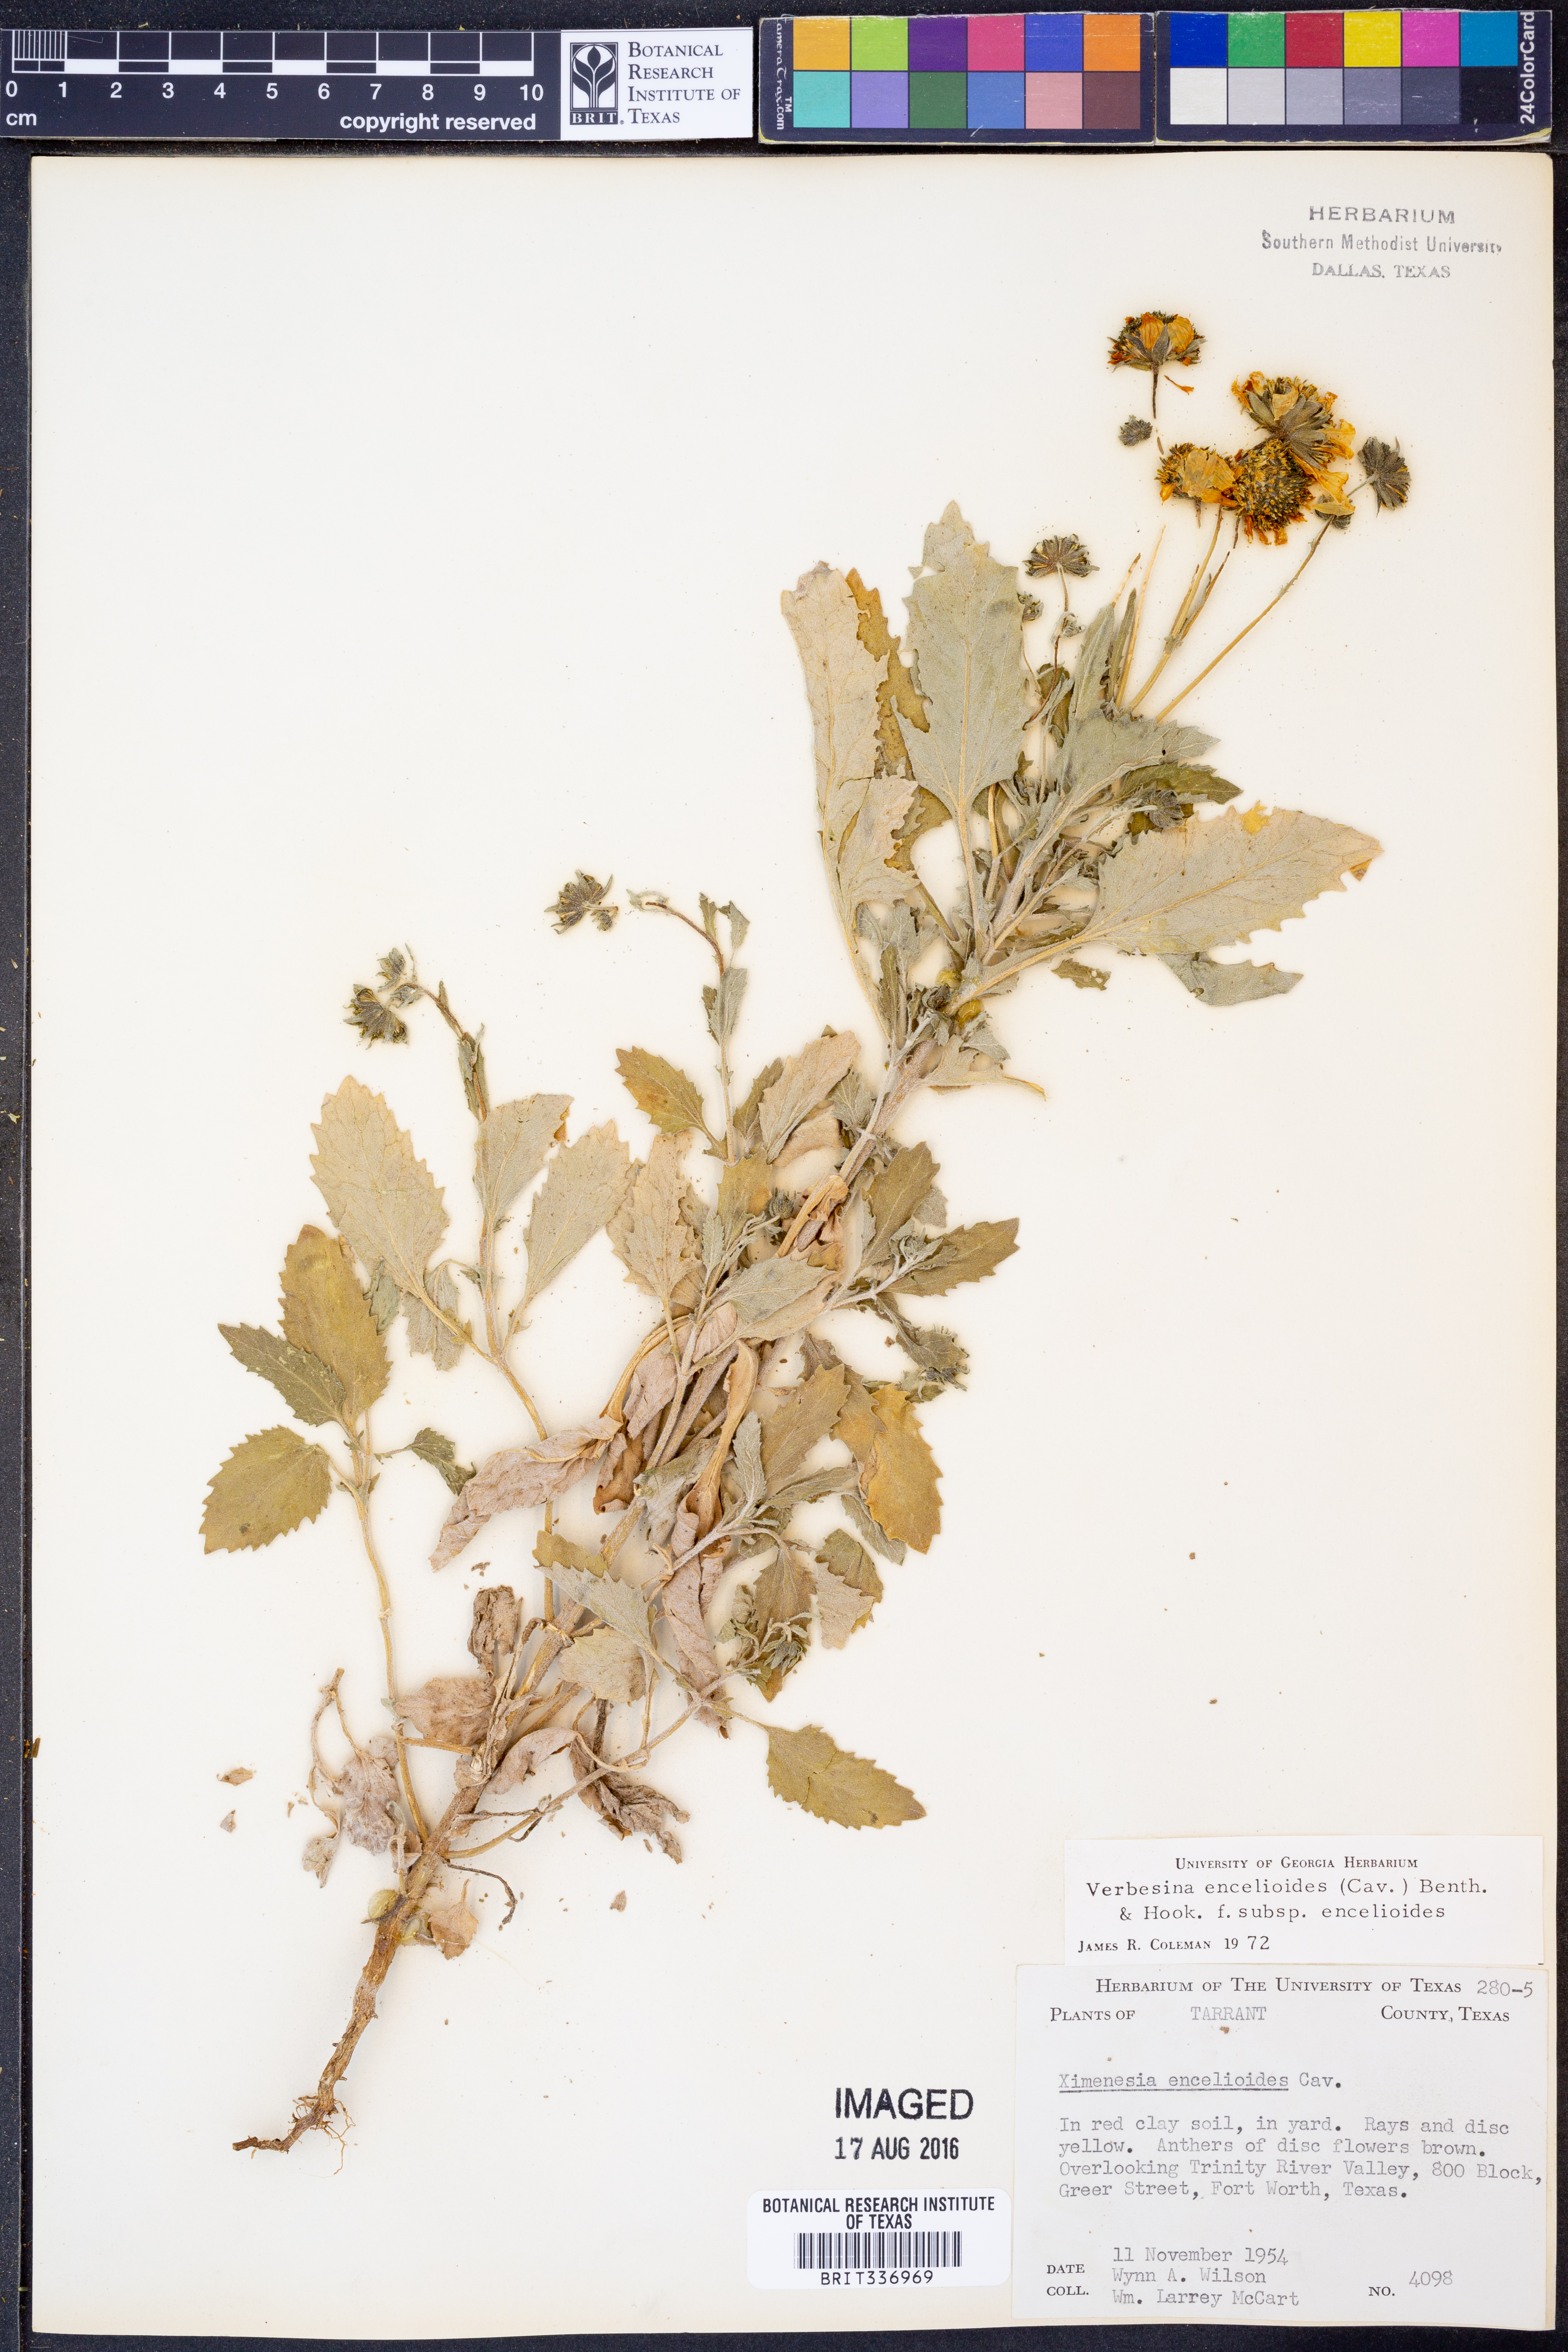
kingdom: Plantae
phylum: Tracheophyta
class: Magnoliopsida
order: Asterales
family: Asteraceae
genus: Verbesina
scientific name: Verbesina encelioides
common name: Golden crownbeard
